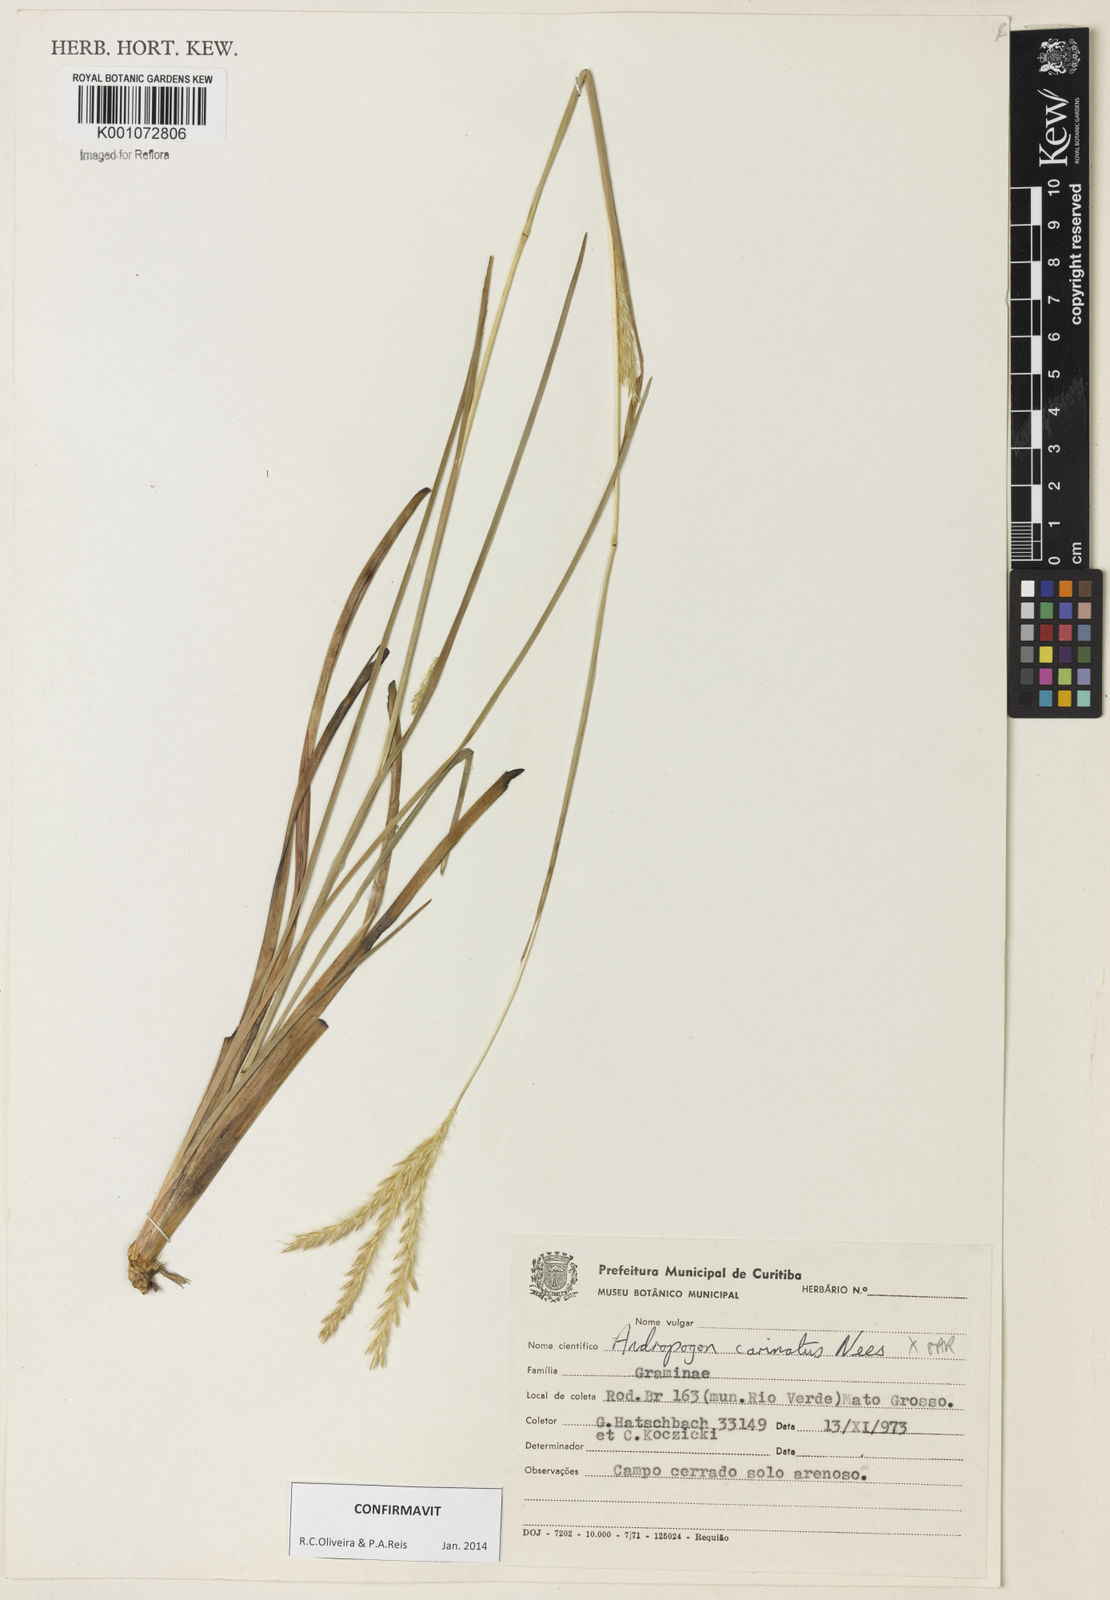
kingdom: Plantae
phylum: Tracheophyta
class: Liliopsida
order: Poales
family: Poaceae
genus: Andropogon
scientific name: Andropogon carinatus
